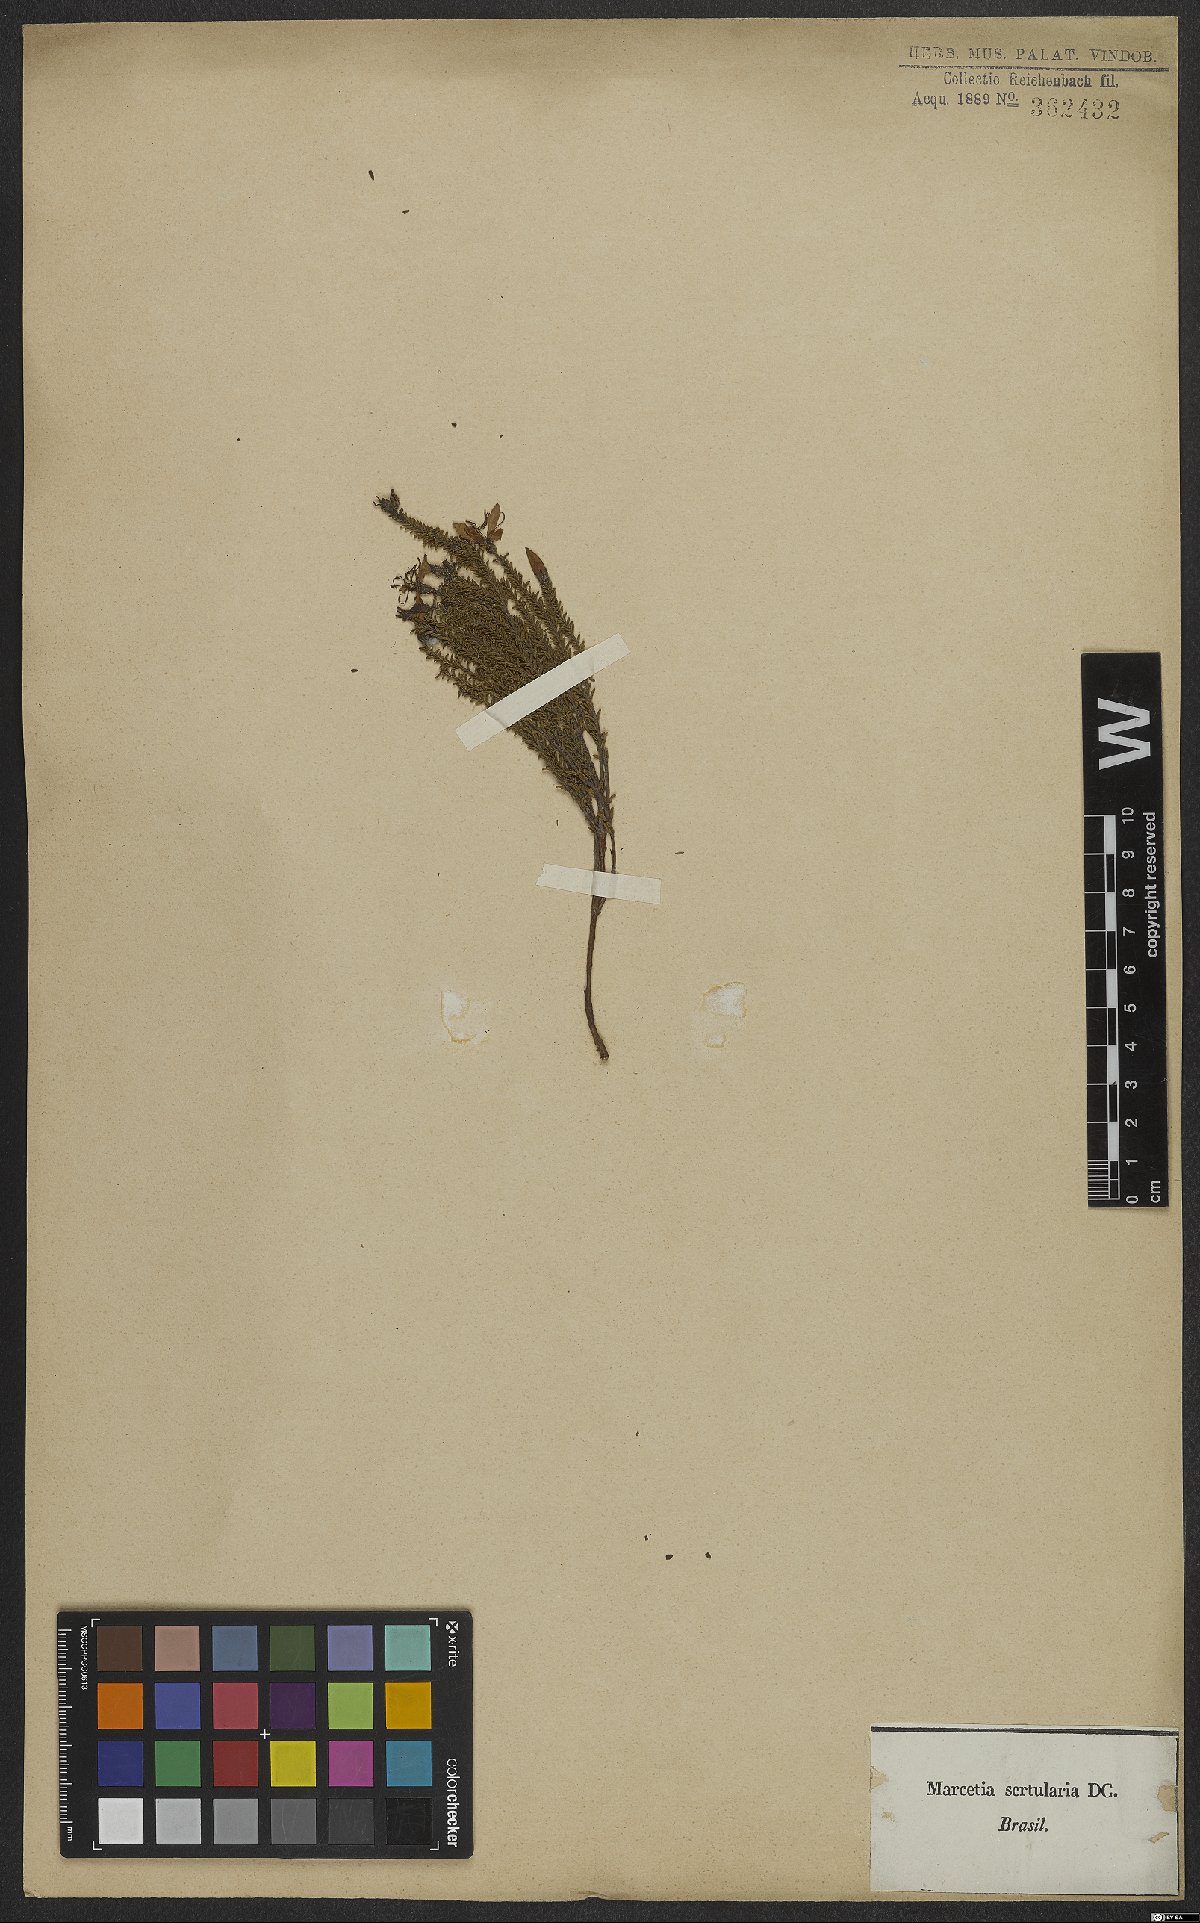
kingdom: Plantae
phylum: Tracheophyta
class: Magnoliopsida
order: Myrtales
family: Melastomataceae
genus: Fritzschia
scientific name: Fritzschia sertularia
